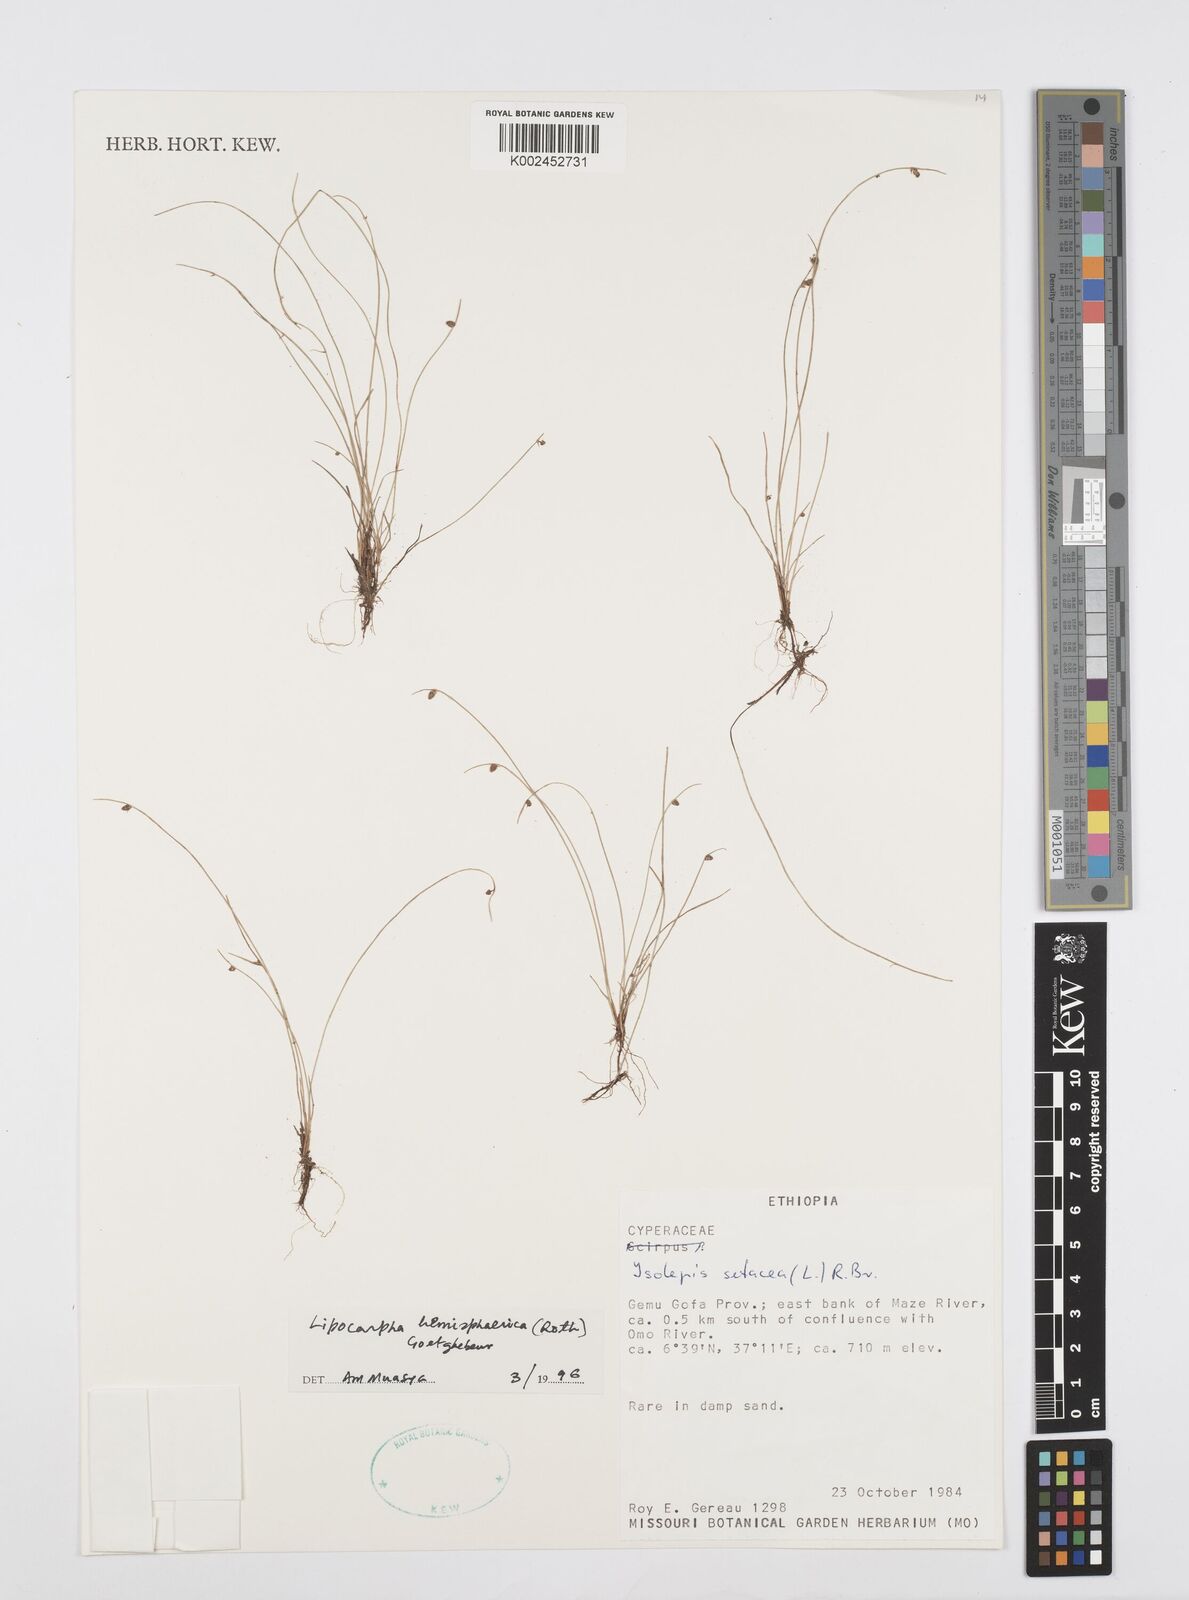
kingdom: Plantae
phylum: Tracheophyta
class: Liliopsida
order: Poales
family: Cyperaceae
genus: Cyperus
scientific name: Cyperus isolepis
